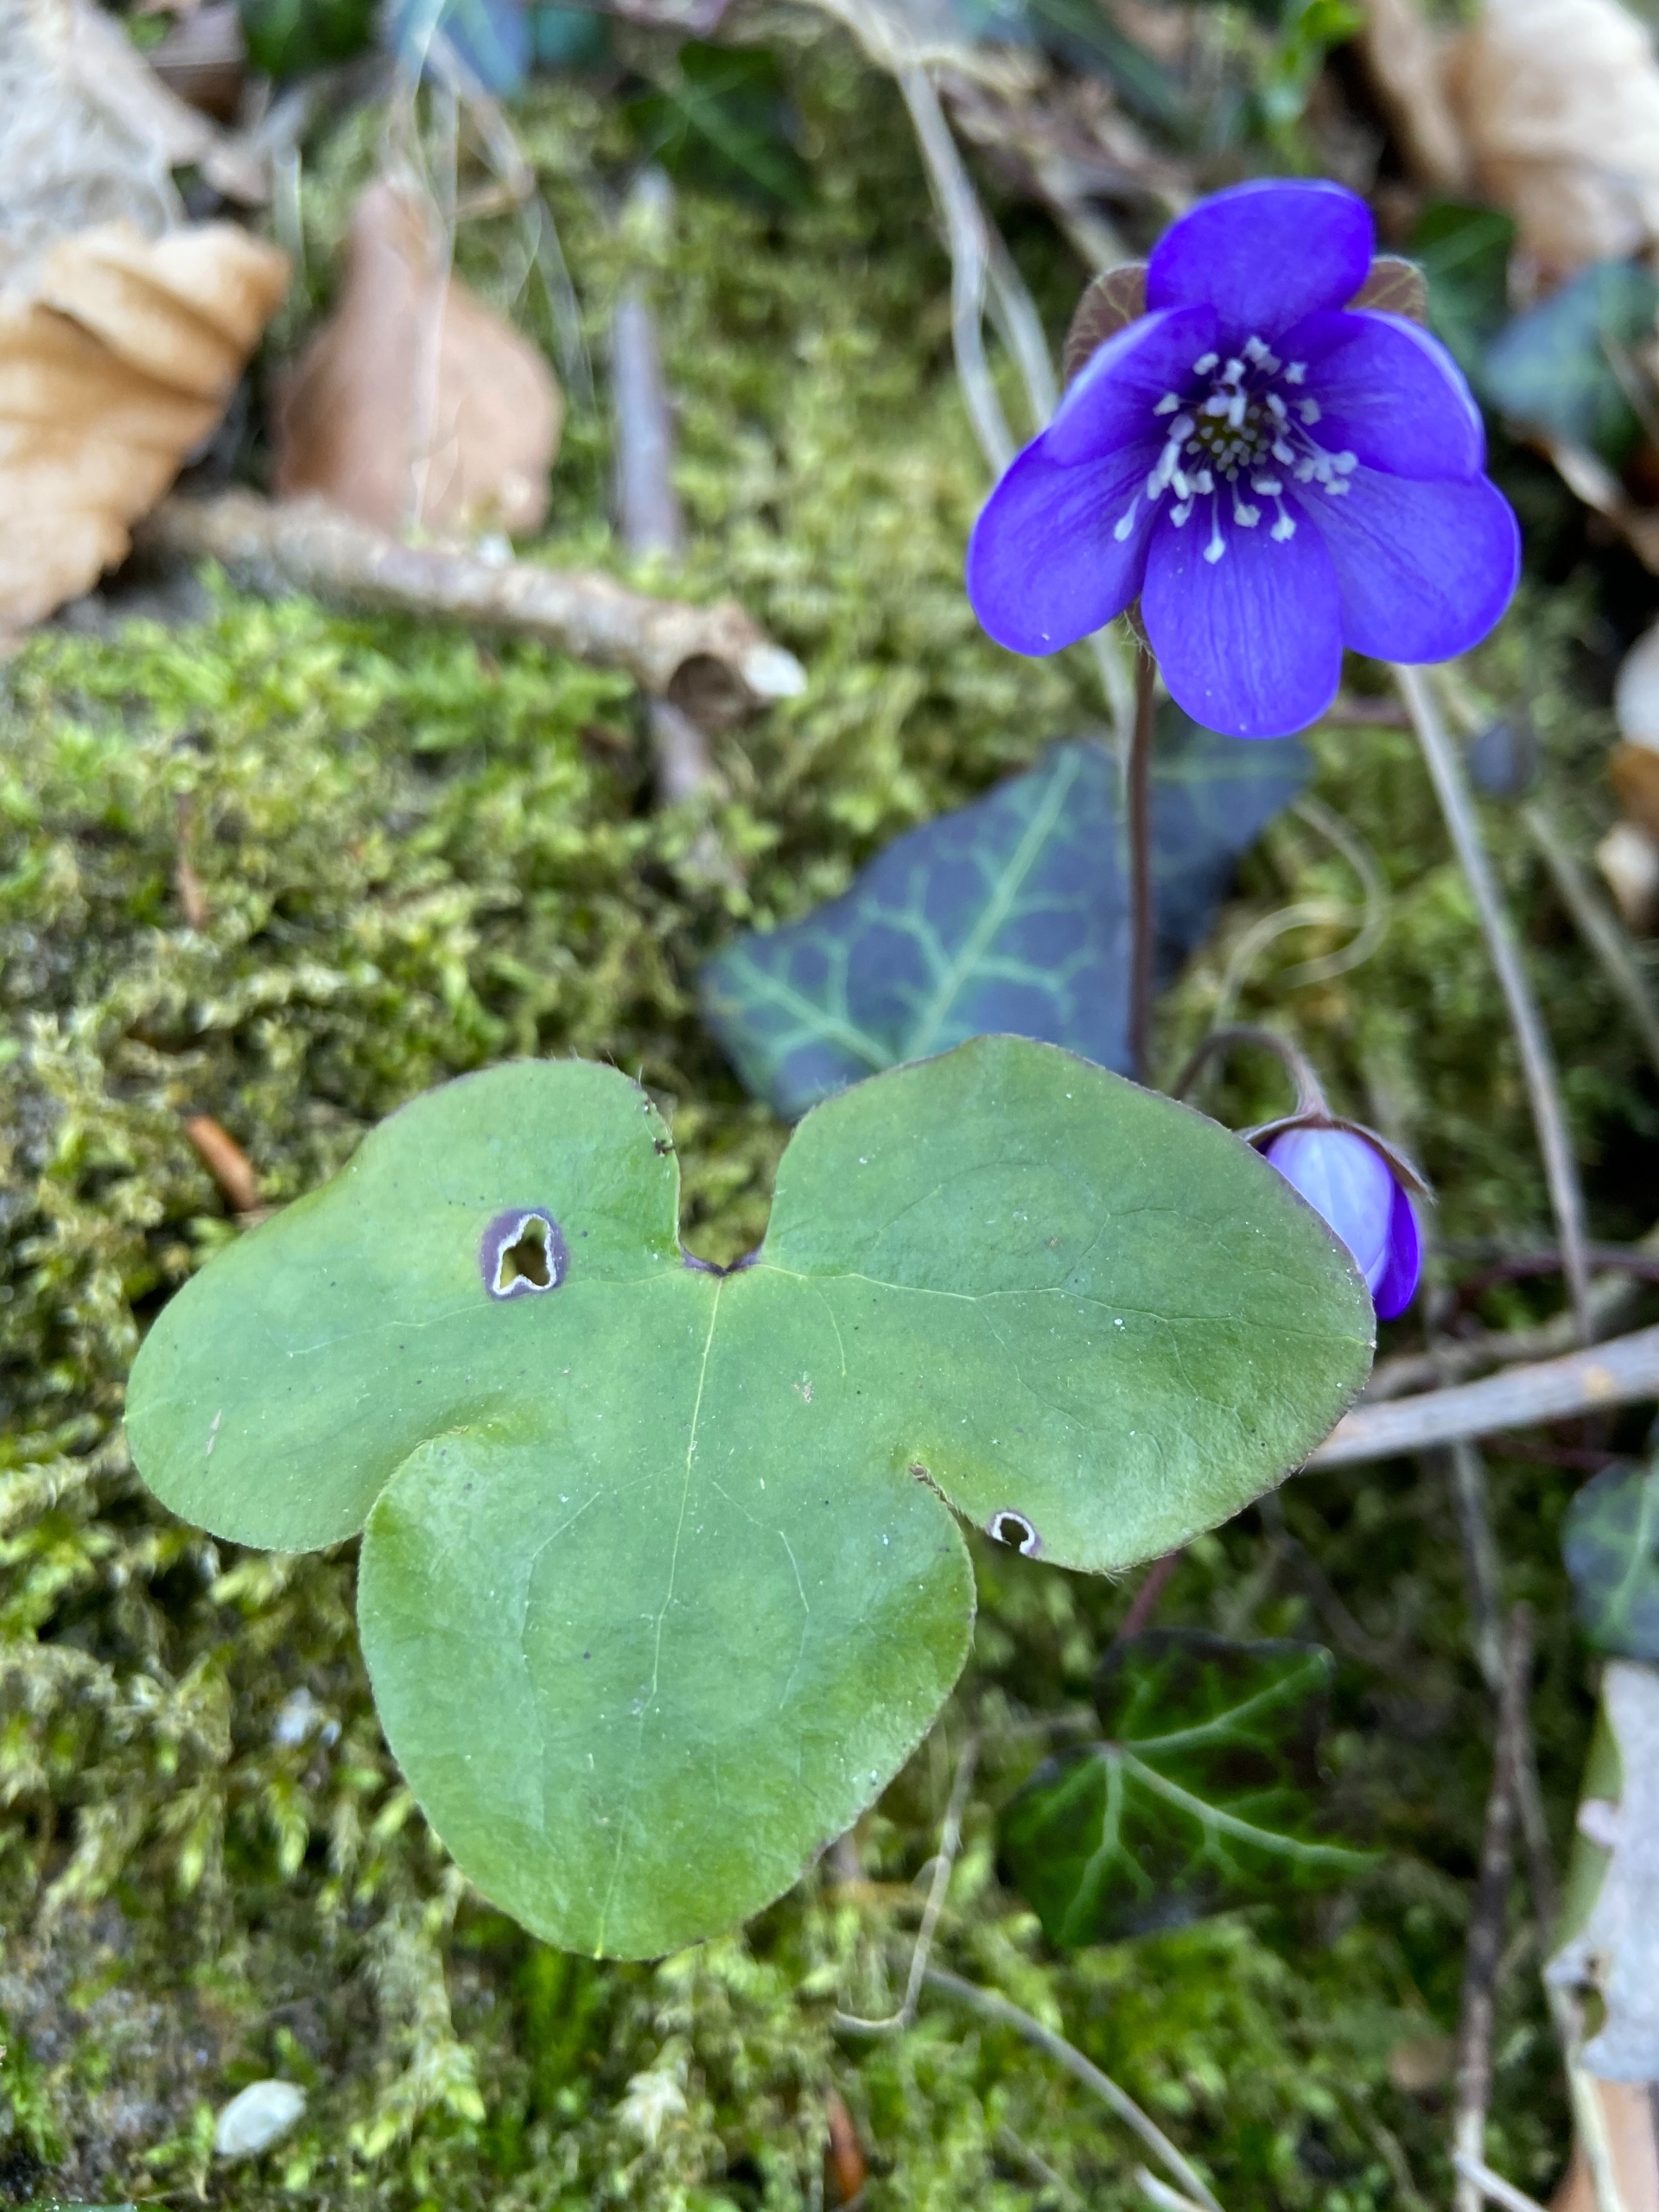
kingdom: Plantae
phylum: Tracheophyta
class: Magnoliopsida
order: Ranunculales
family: Ranunculaceae
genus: Hepatica
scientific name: Hepatica nobilis
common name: Blå anemone
